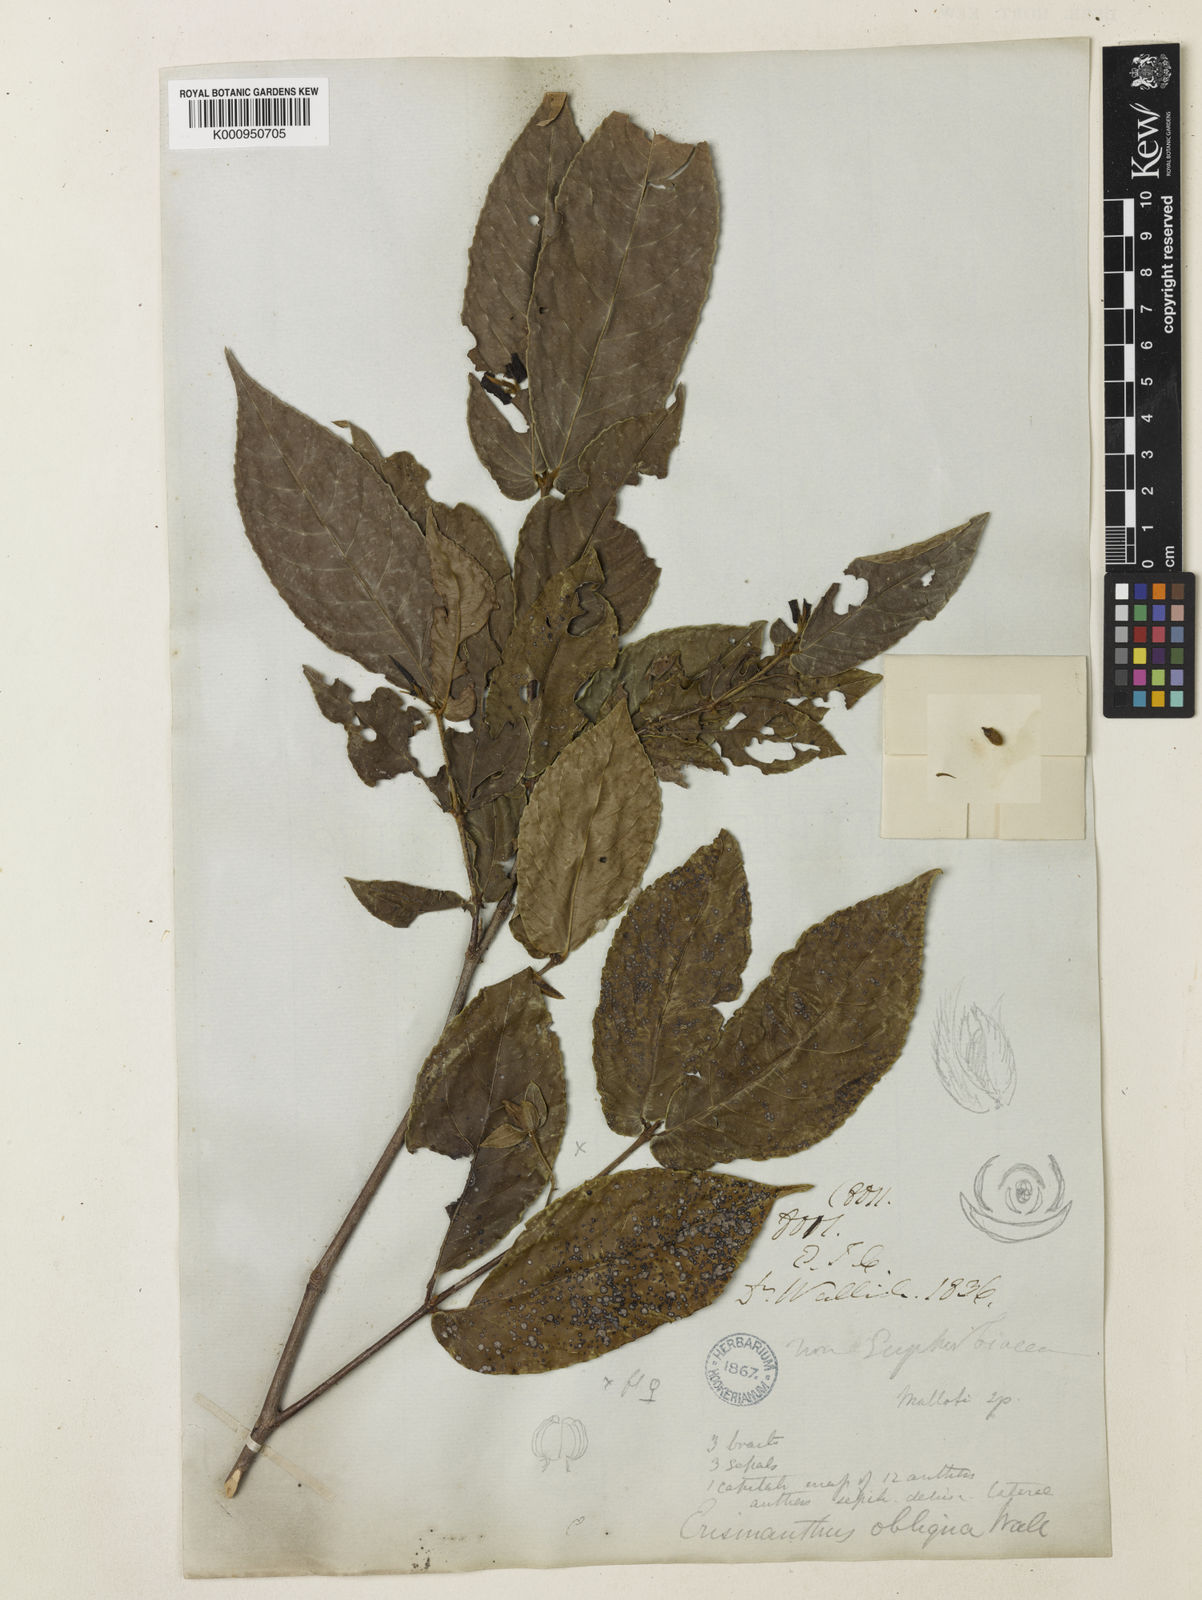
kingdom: Plantae
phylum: Tracheophyta
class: Magnoliopsida
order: Malpighiales
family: Euphorbiaceae
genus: Erismanthus
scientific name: Erismanthus
